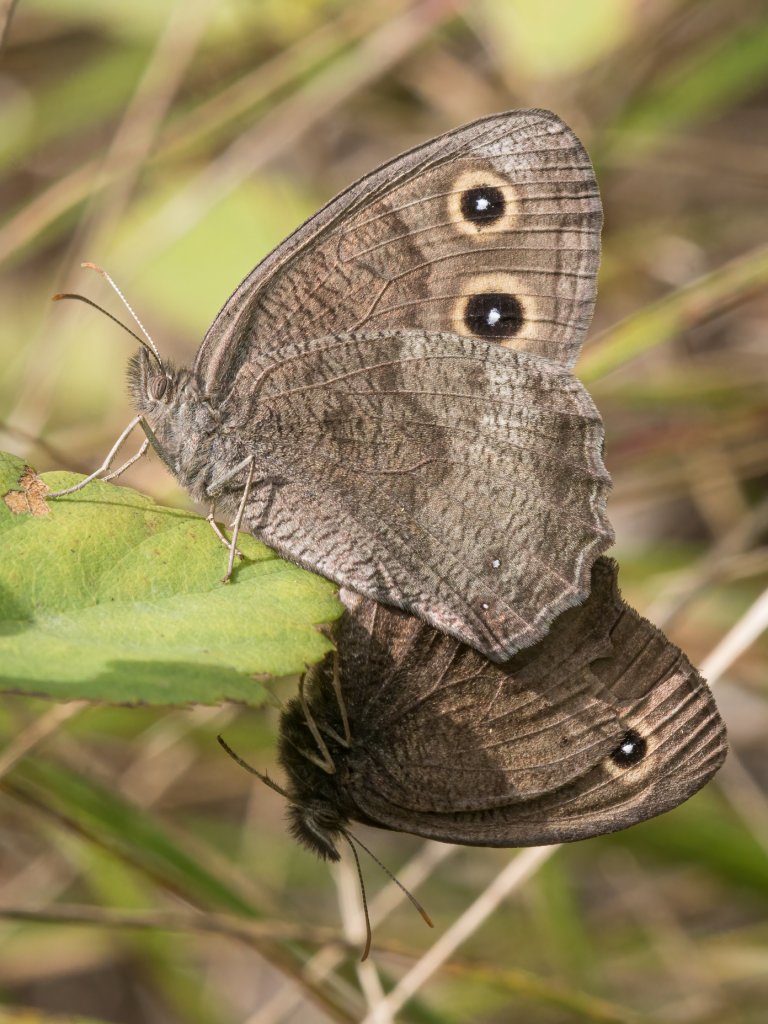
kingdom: Animalia
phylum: Arthropoda
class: Insecta
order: Lepidoptera
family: Nymphalidae
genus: Cercyonis
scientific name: Cercyonis pegala
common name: Common Wood-Nymph
